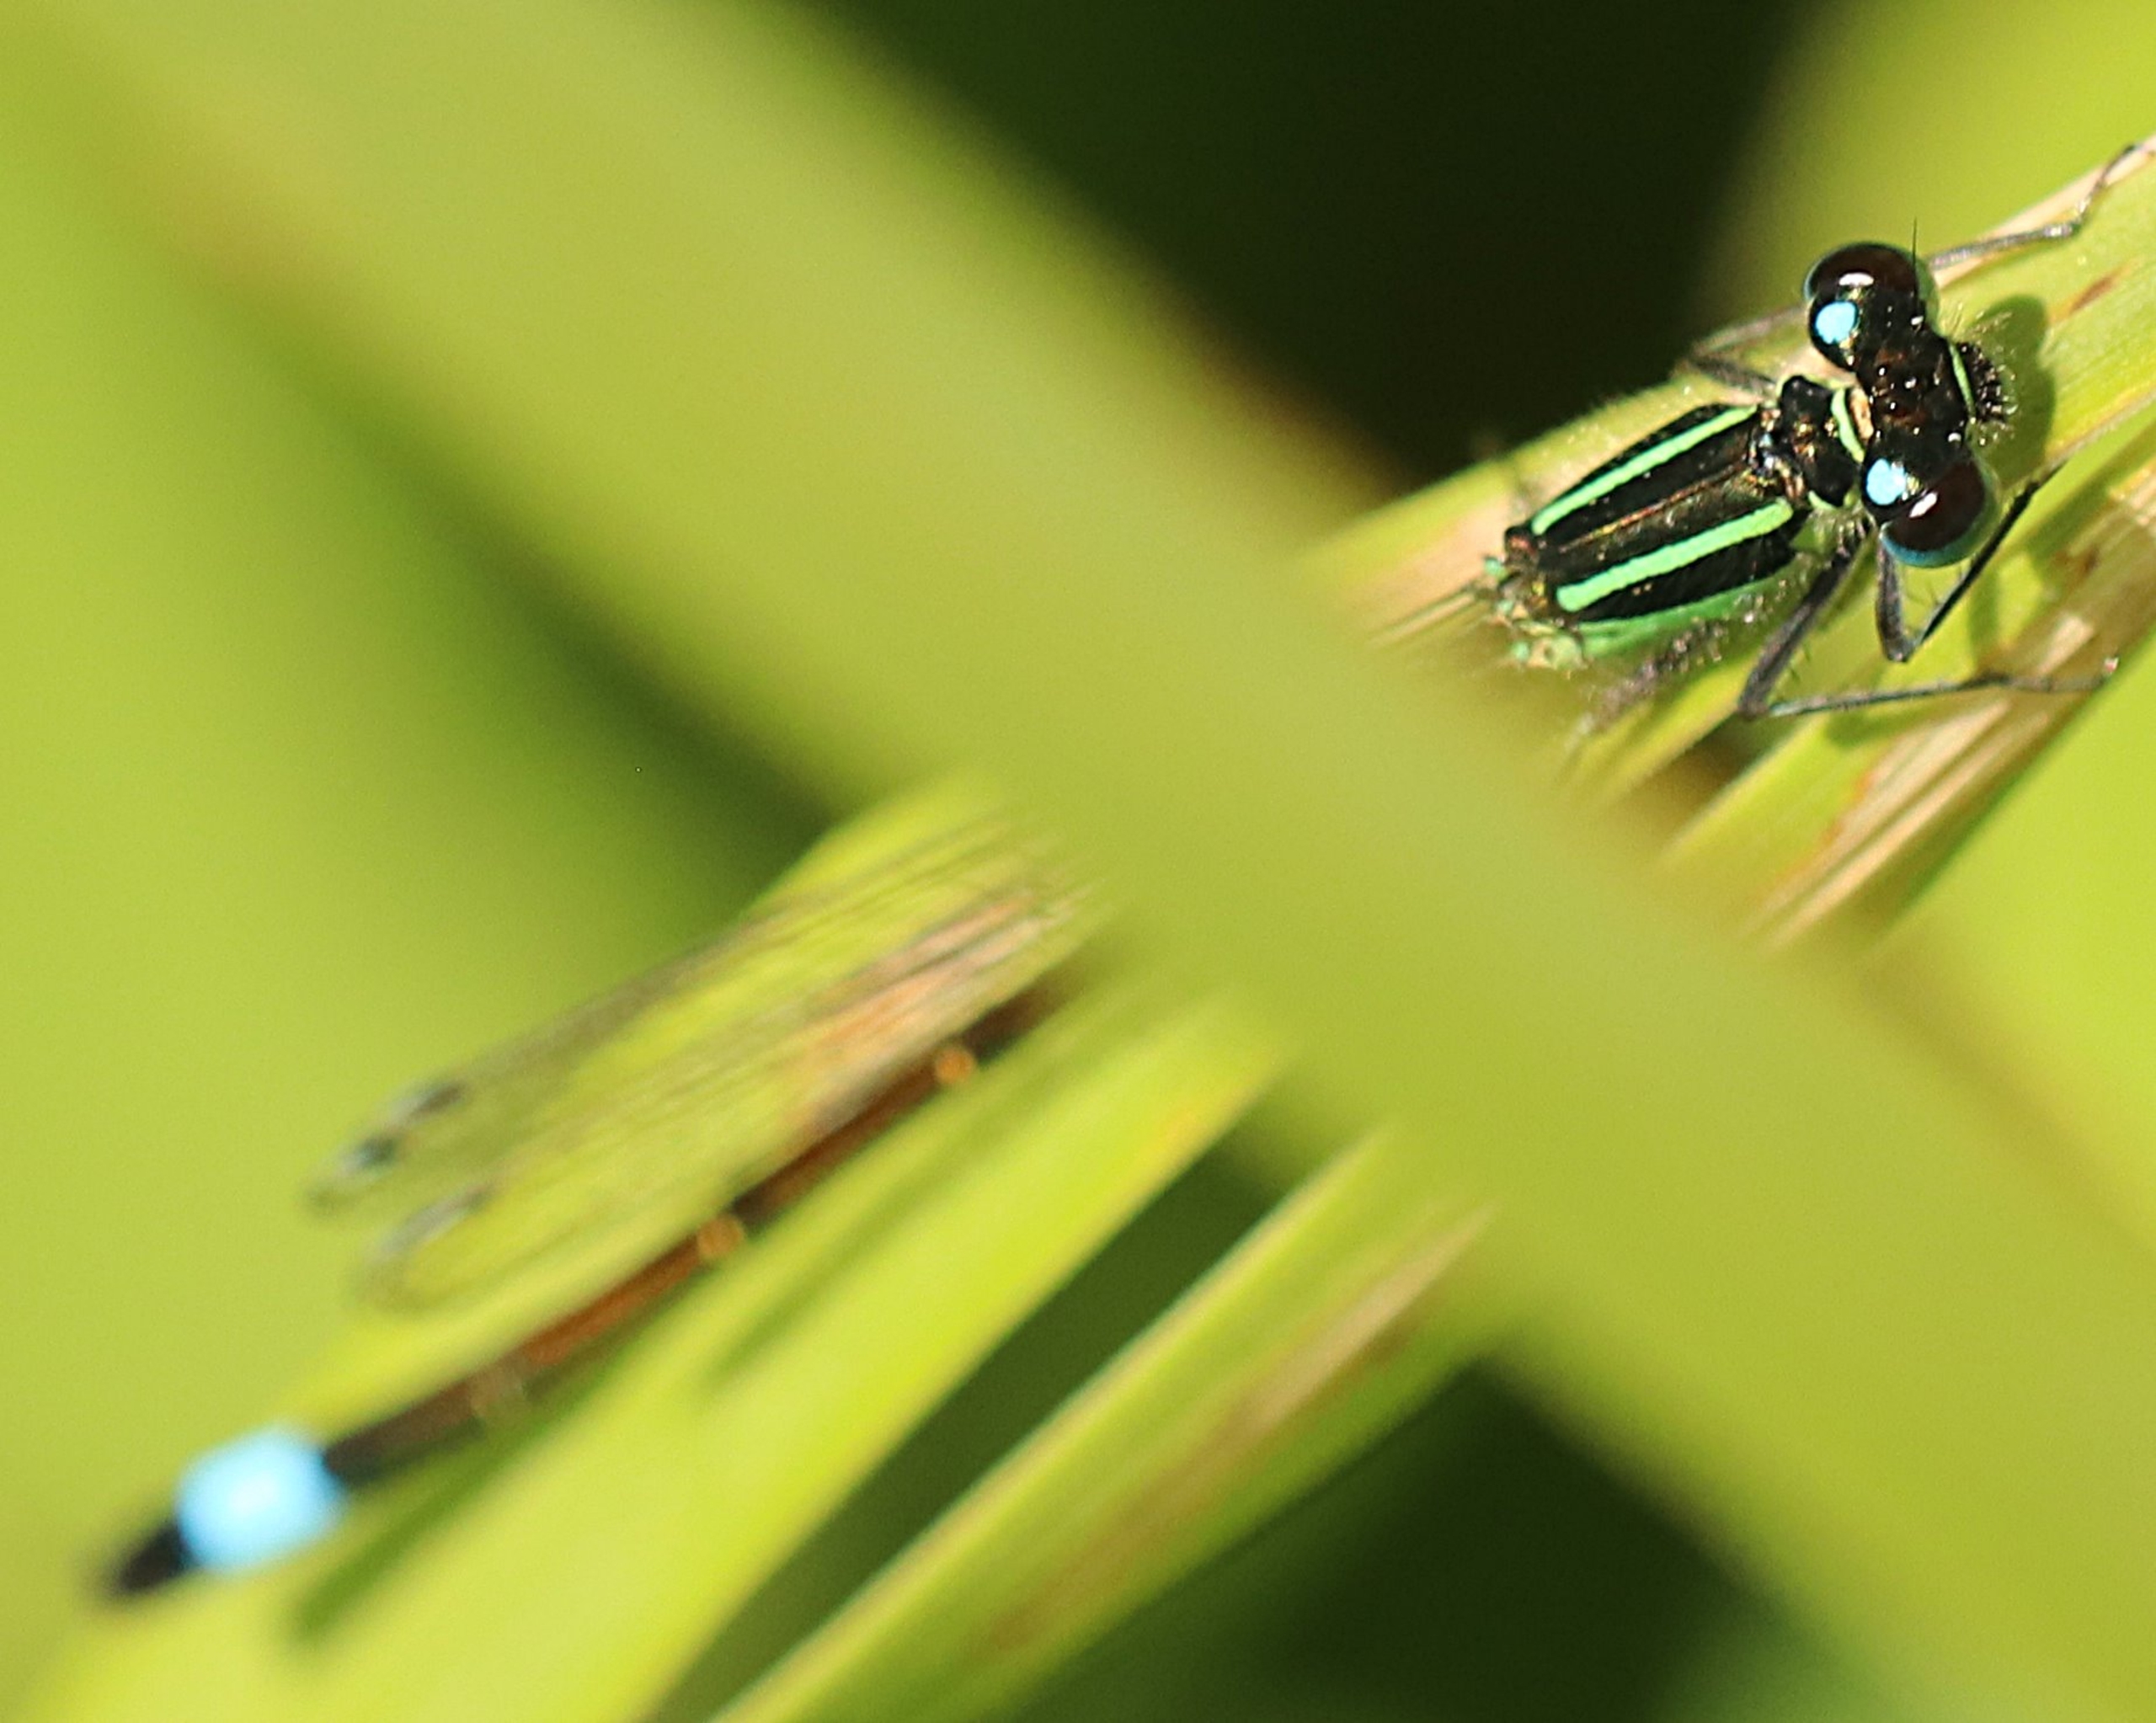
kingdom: Animalia
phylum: Arthropoda
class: Insecta
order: Odonata
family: Coenagrionidae
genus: Ischnura
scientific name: Ischnura elegans
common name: Stor farvevandnymfe
